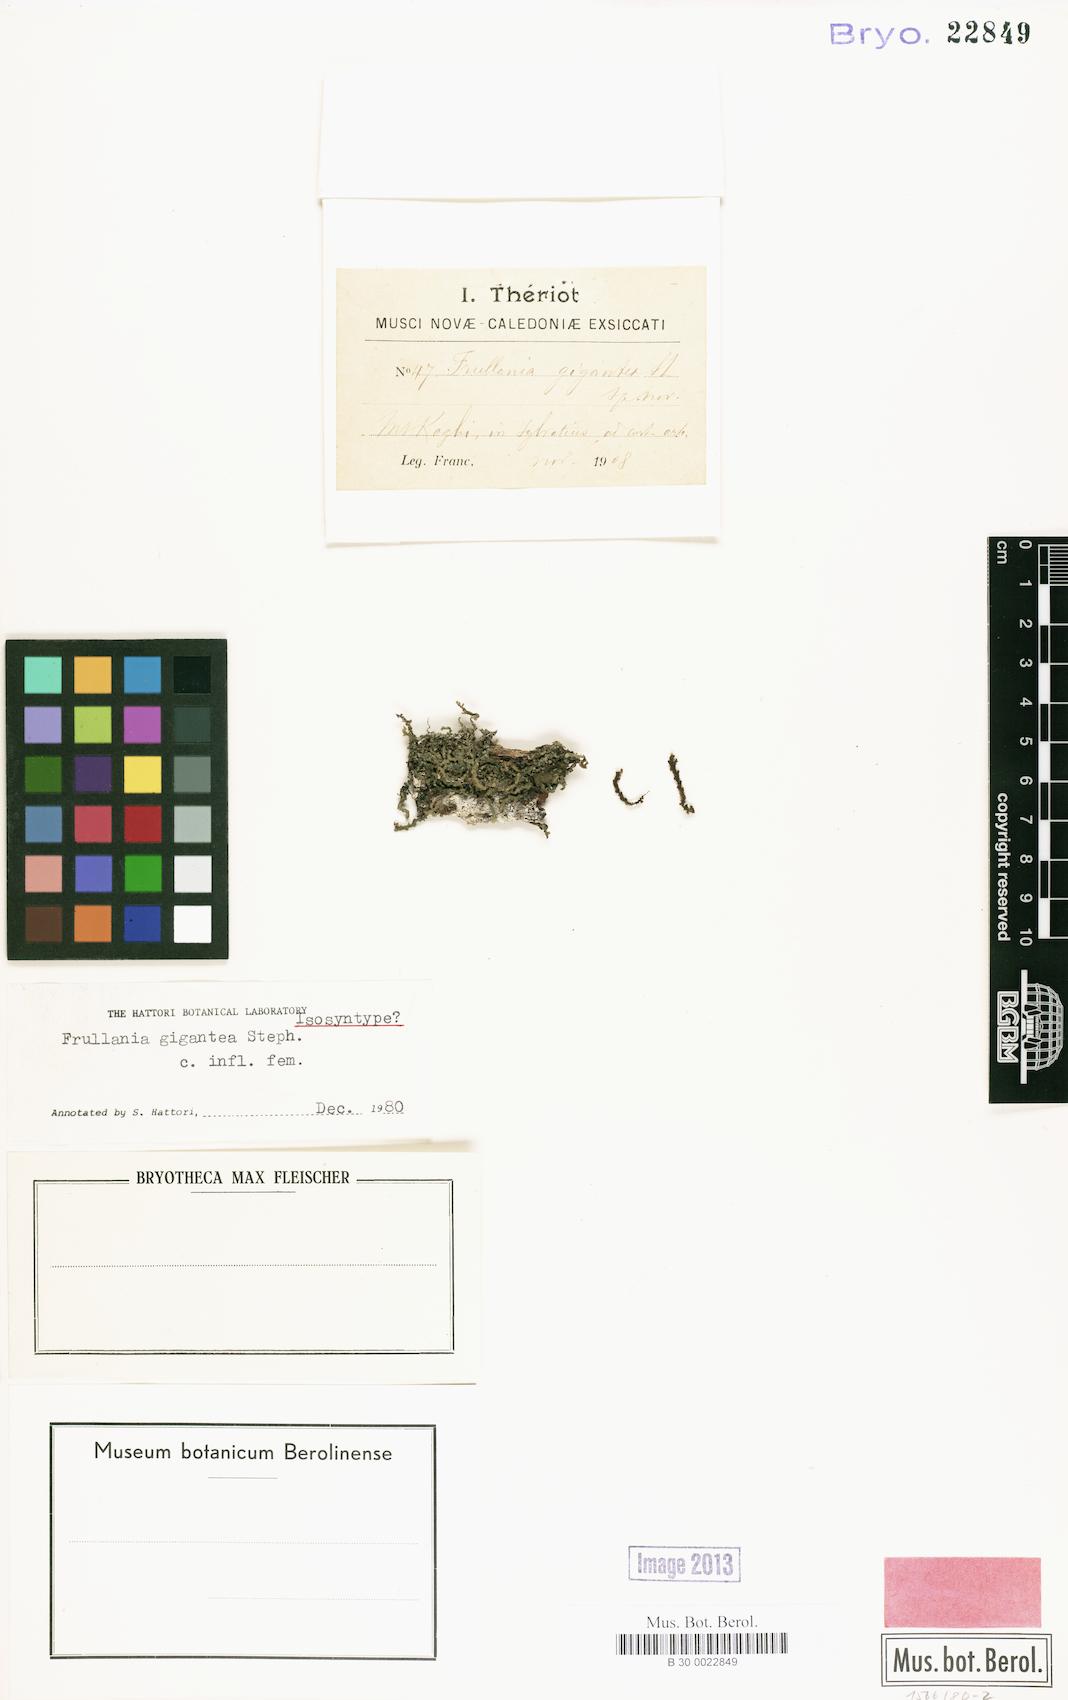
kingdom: Plantae
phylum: Marchantiophyta
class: Jungermanniopsida
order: Porellales
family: Frullaniaceae
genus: Frullania
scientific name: Frullania gigantea
